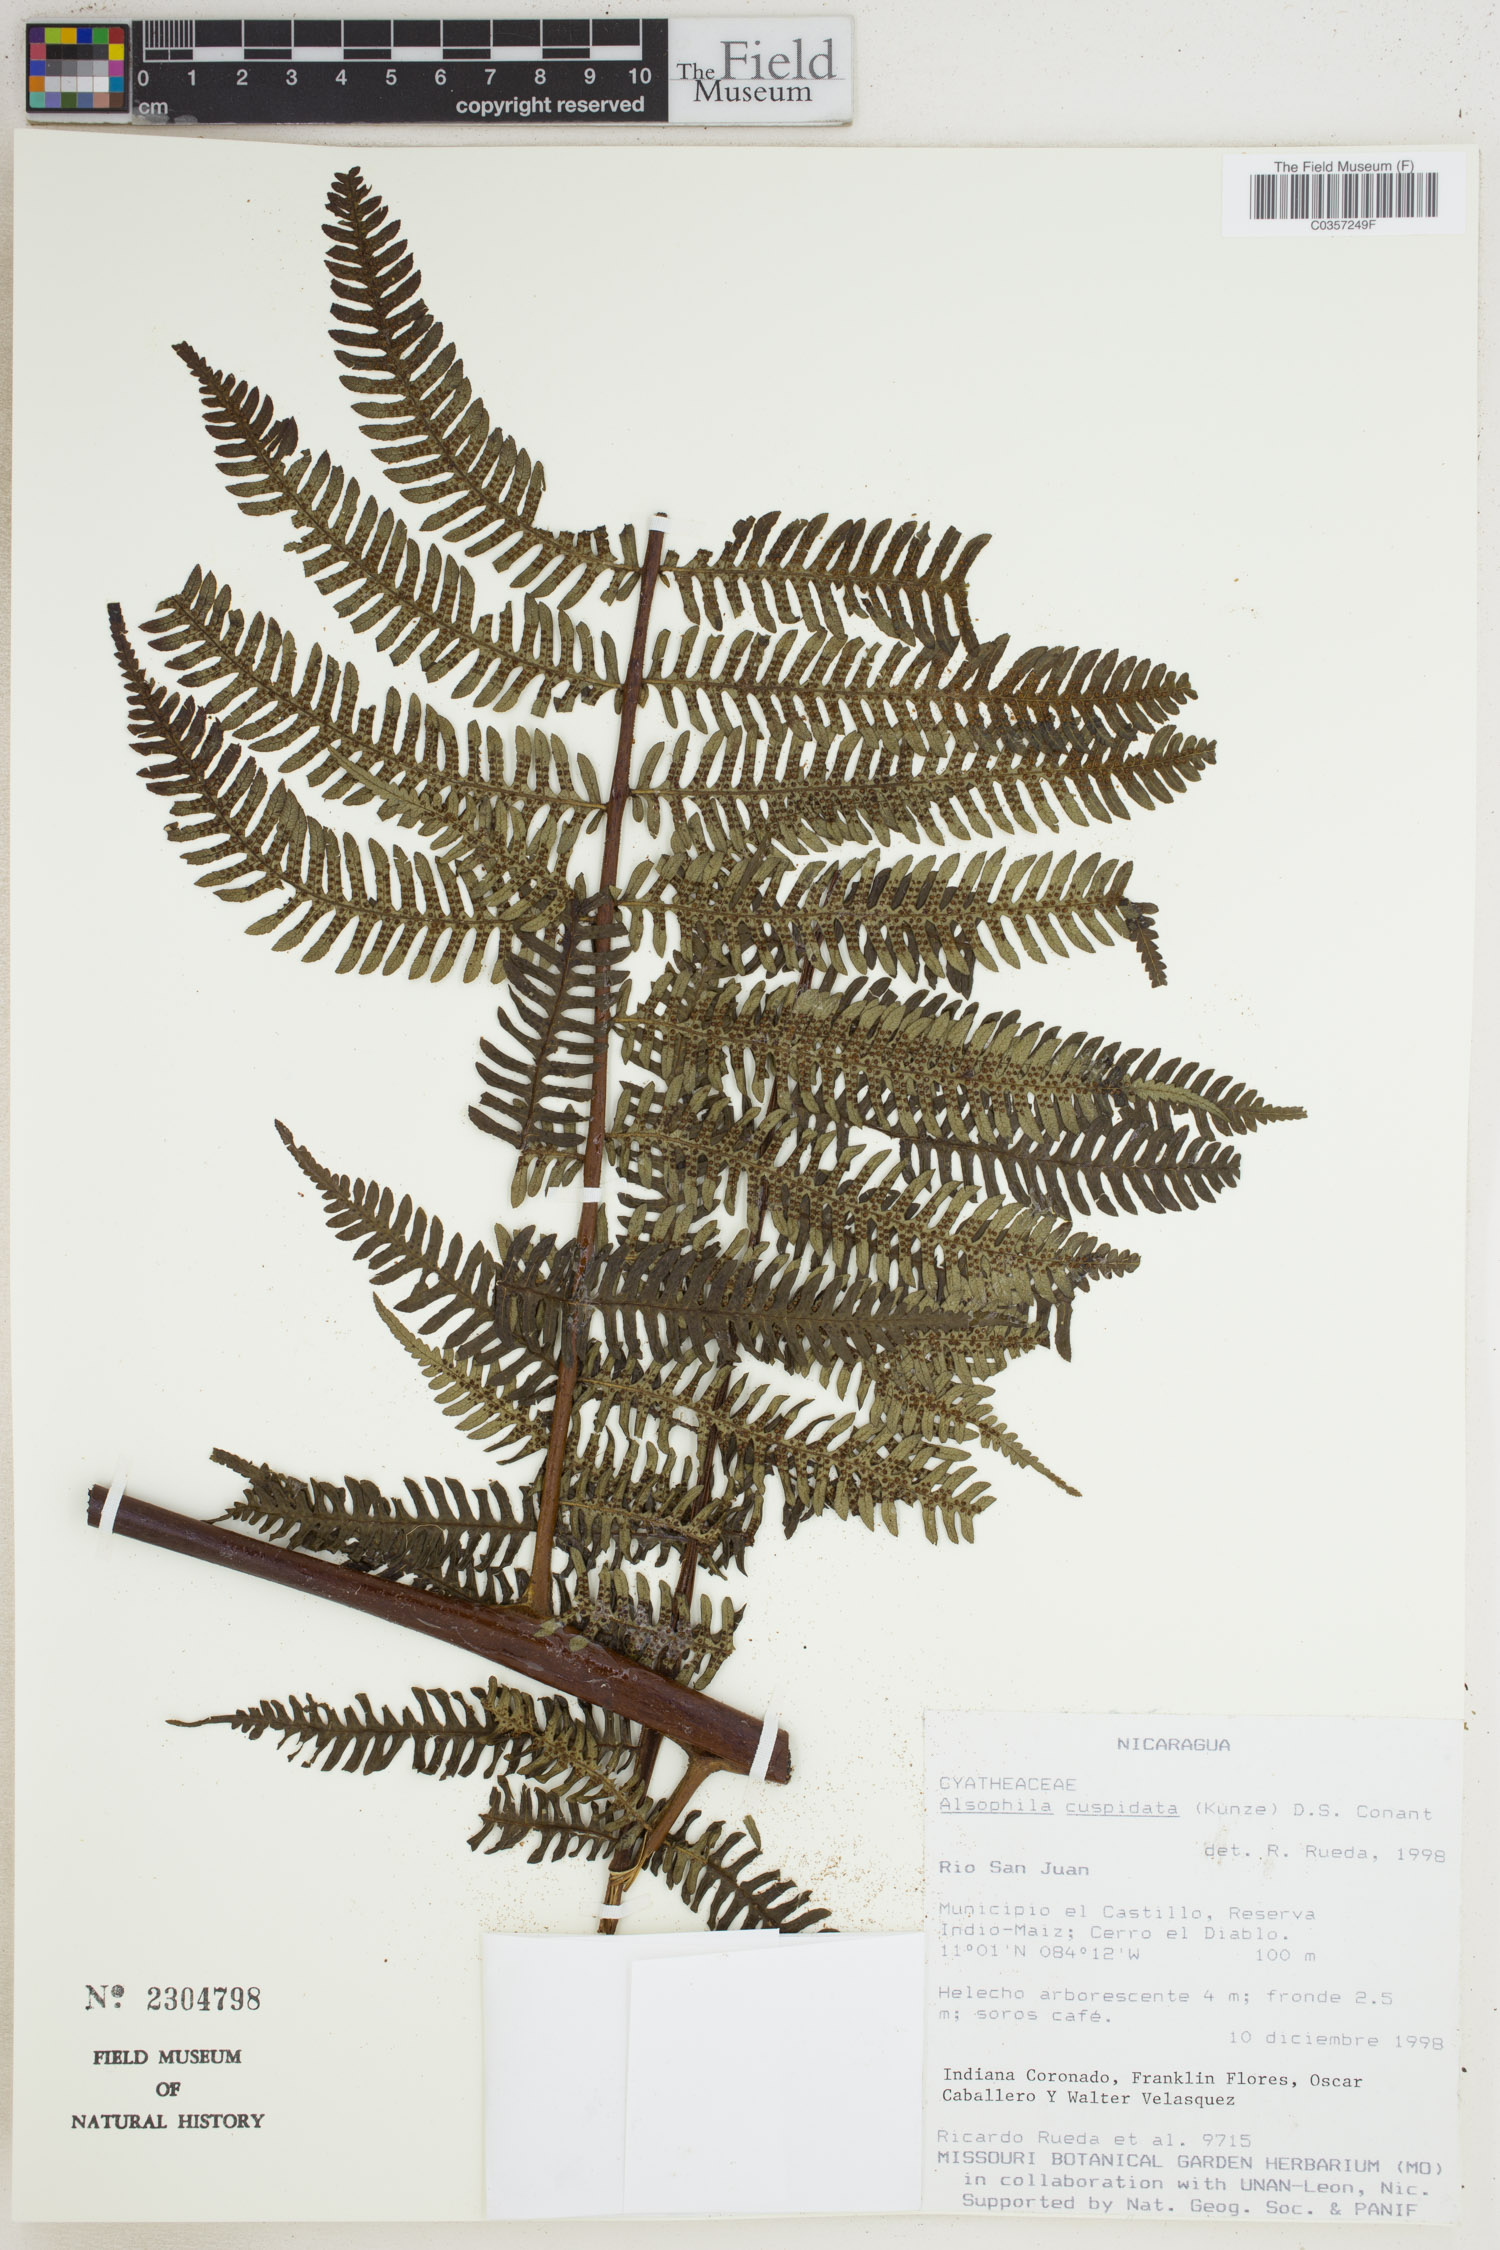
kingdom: Plantae
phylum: Tracheophyta
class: Polypodiopsida
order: Cyatheales
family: Cyatheaceae
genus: Alsophila
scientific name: Alsophila cuspidata
